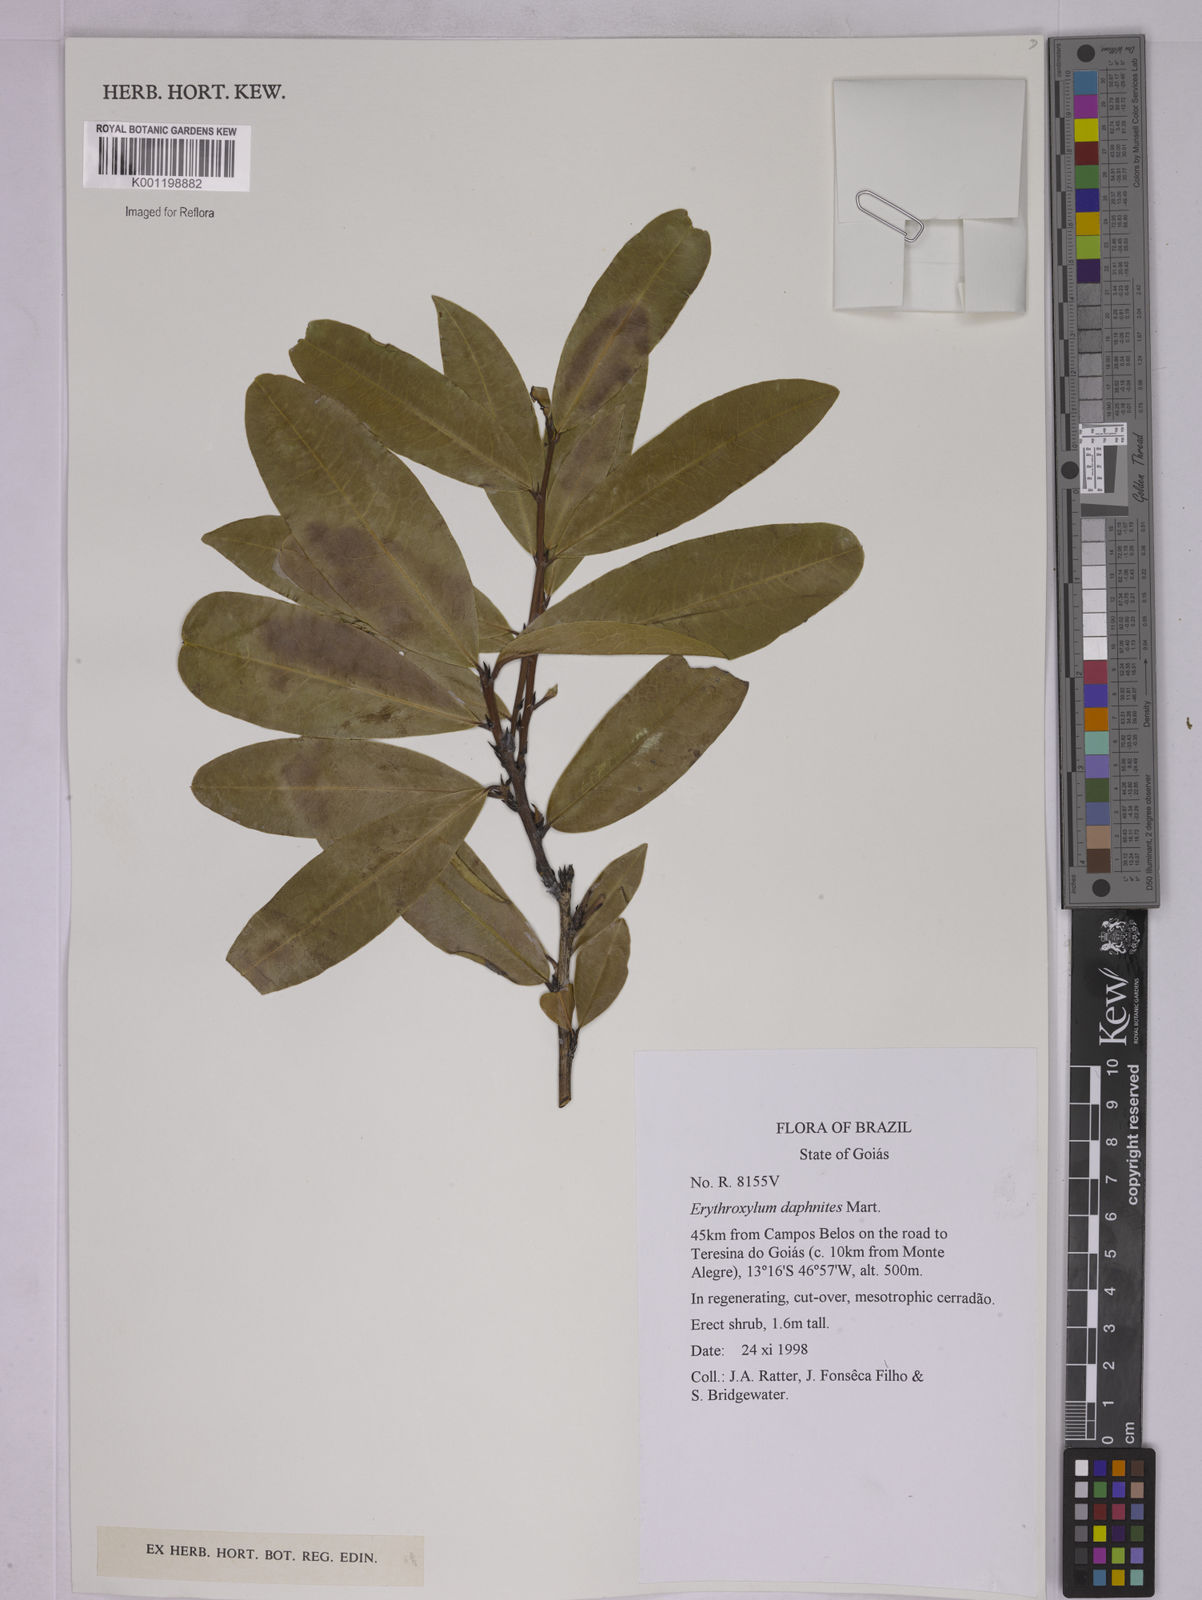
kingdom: Plantae
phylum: Tracheophyta
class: Magnoliopsida
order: Malpighiales
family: Erythroxylaceae
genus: Erythroxylum
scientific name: Erythroxylum daphnites
